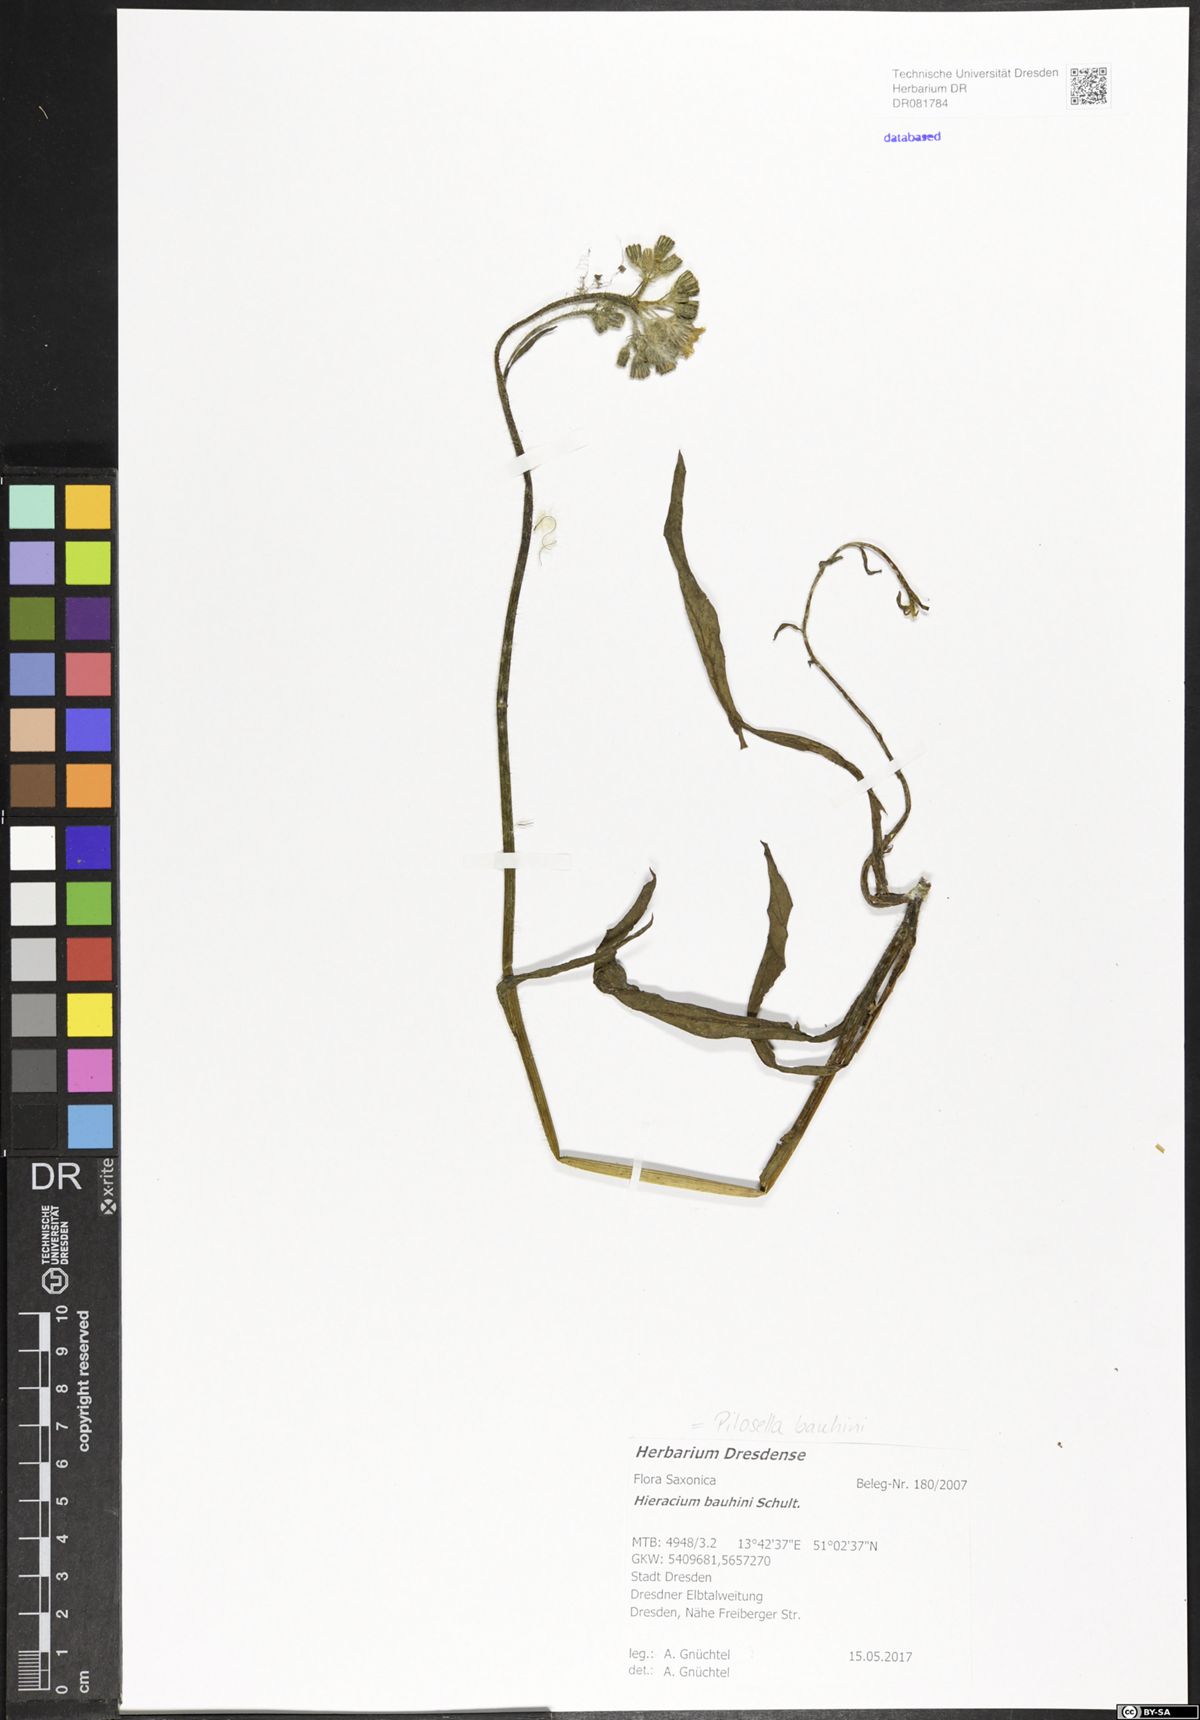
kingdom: Plantae
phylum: Tracheophyta
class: Magnoliopsida
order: Asterales
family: Asteraceae
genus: Pilosella
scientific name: Pilosella bauhini
